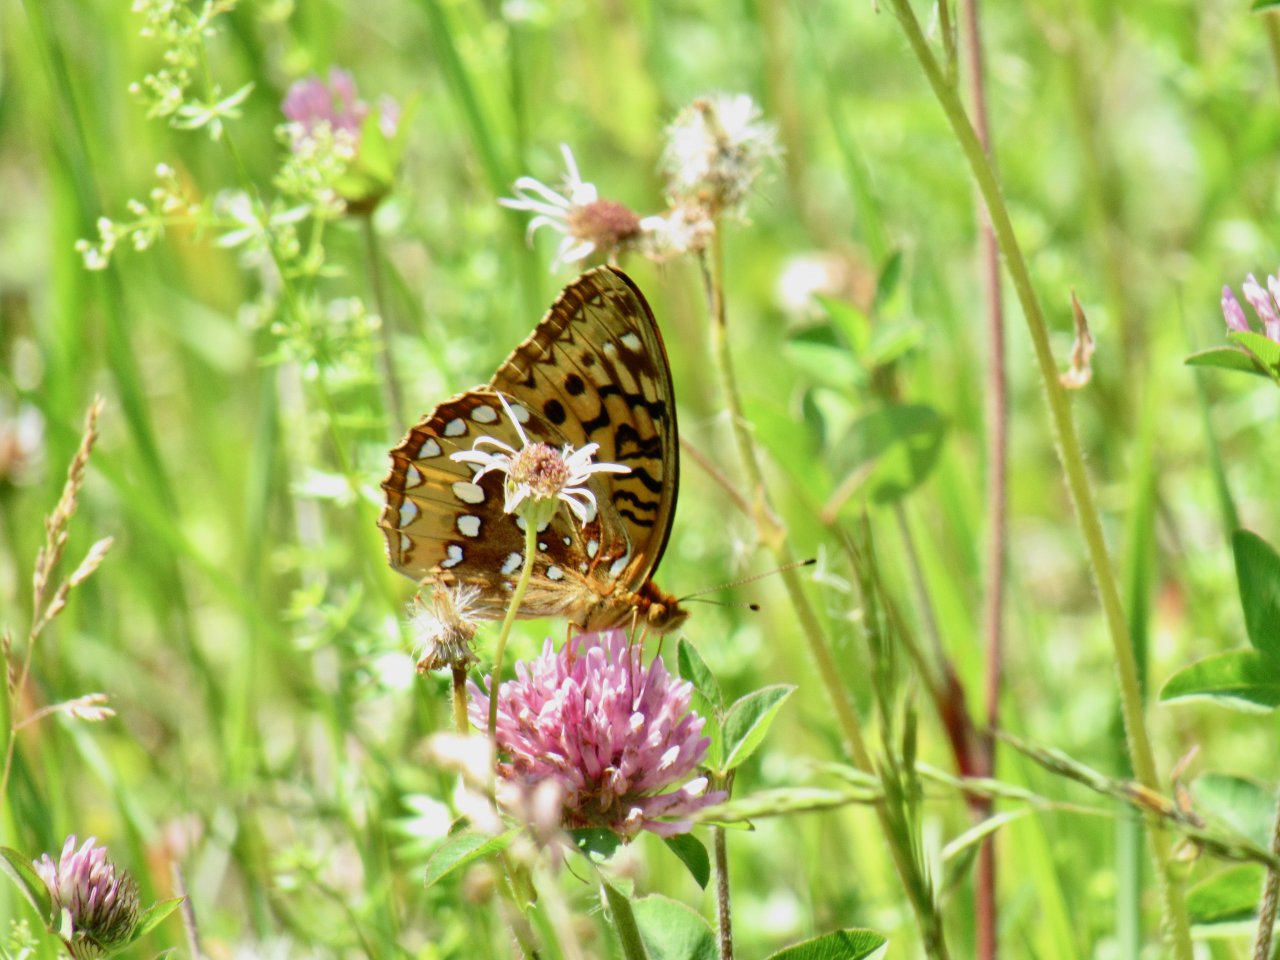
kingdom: Animalia
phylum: Arthropoda
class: Insecta
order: Lepidoptera
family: Nymphalidae
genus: Speyeria
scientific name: Speyeria cybele
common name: Great Spangled Fritillary
